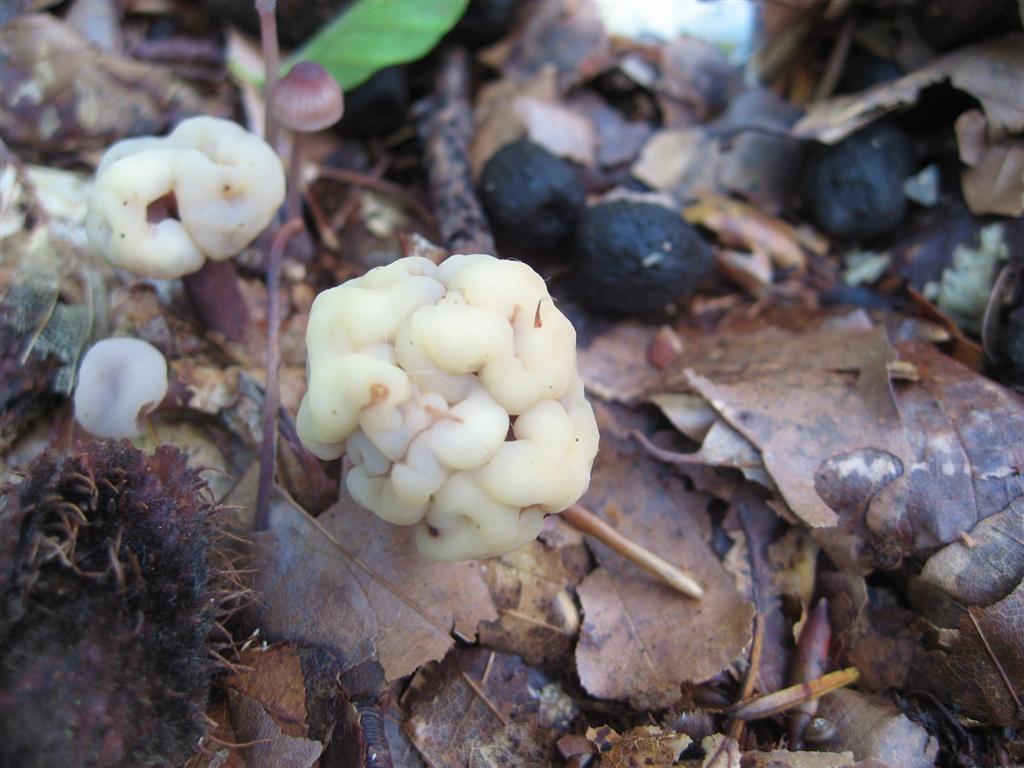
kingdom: Fungi
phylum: Ascomycota
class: Leotiomycetes
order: Rhytismatales
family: Cudoniaceae
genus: Cudonia
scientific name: Cudonia circinans
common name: hekserings-hjelmmorkel
